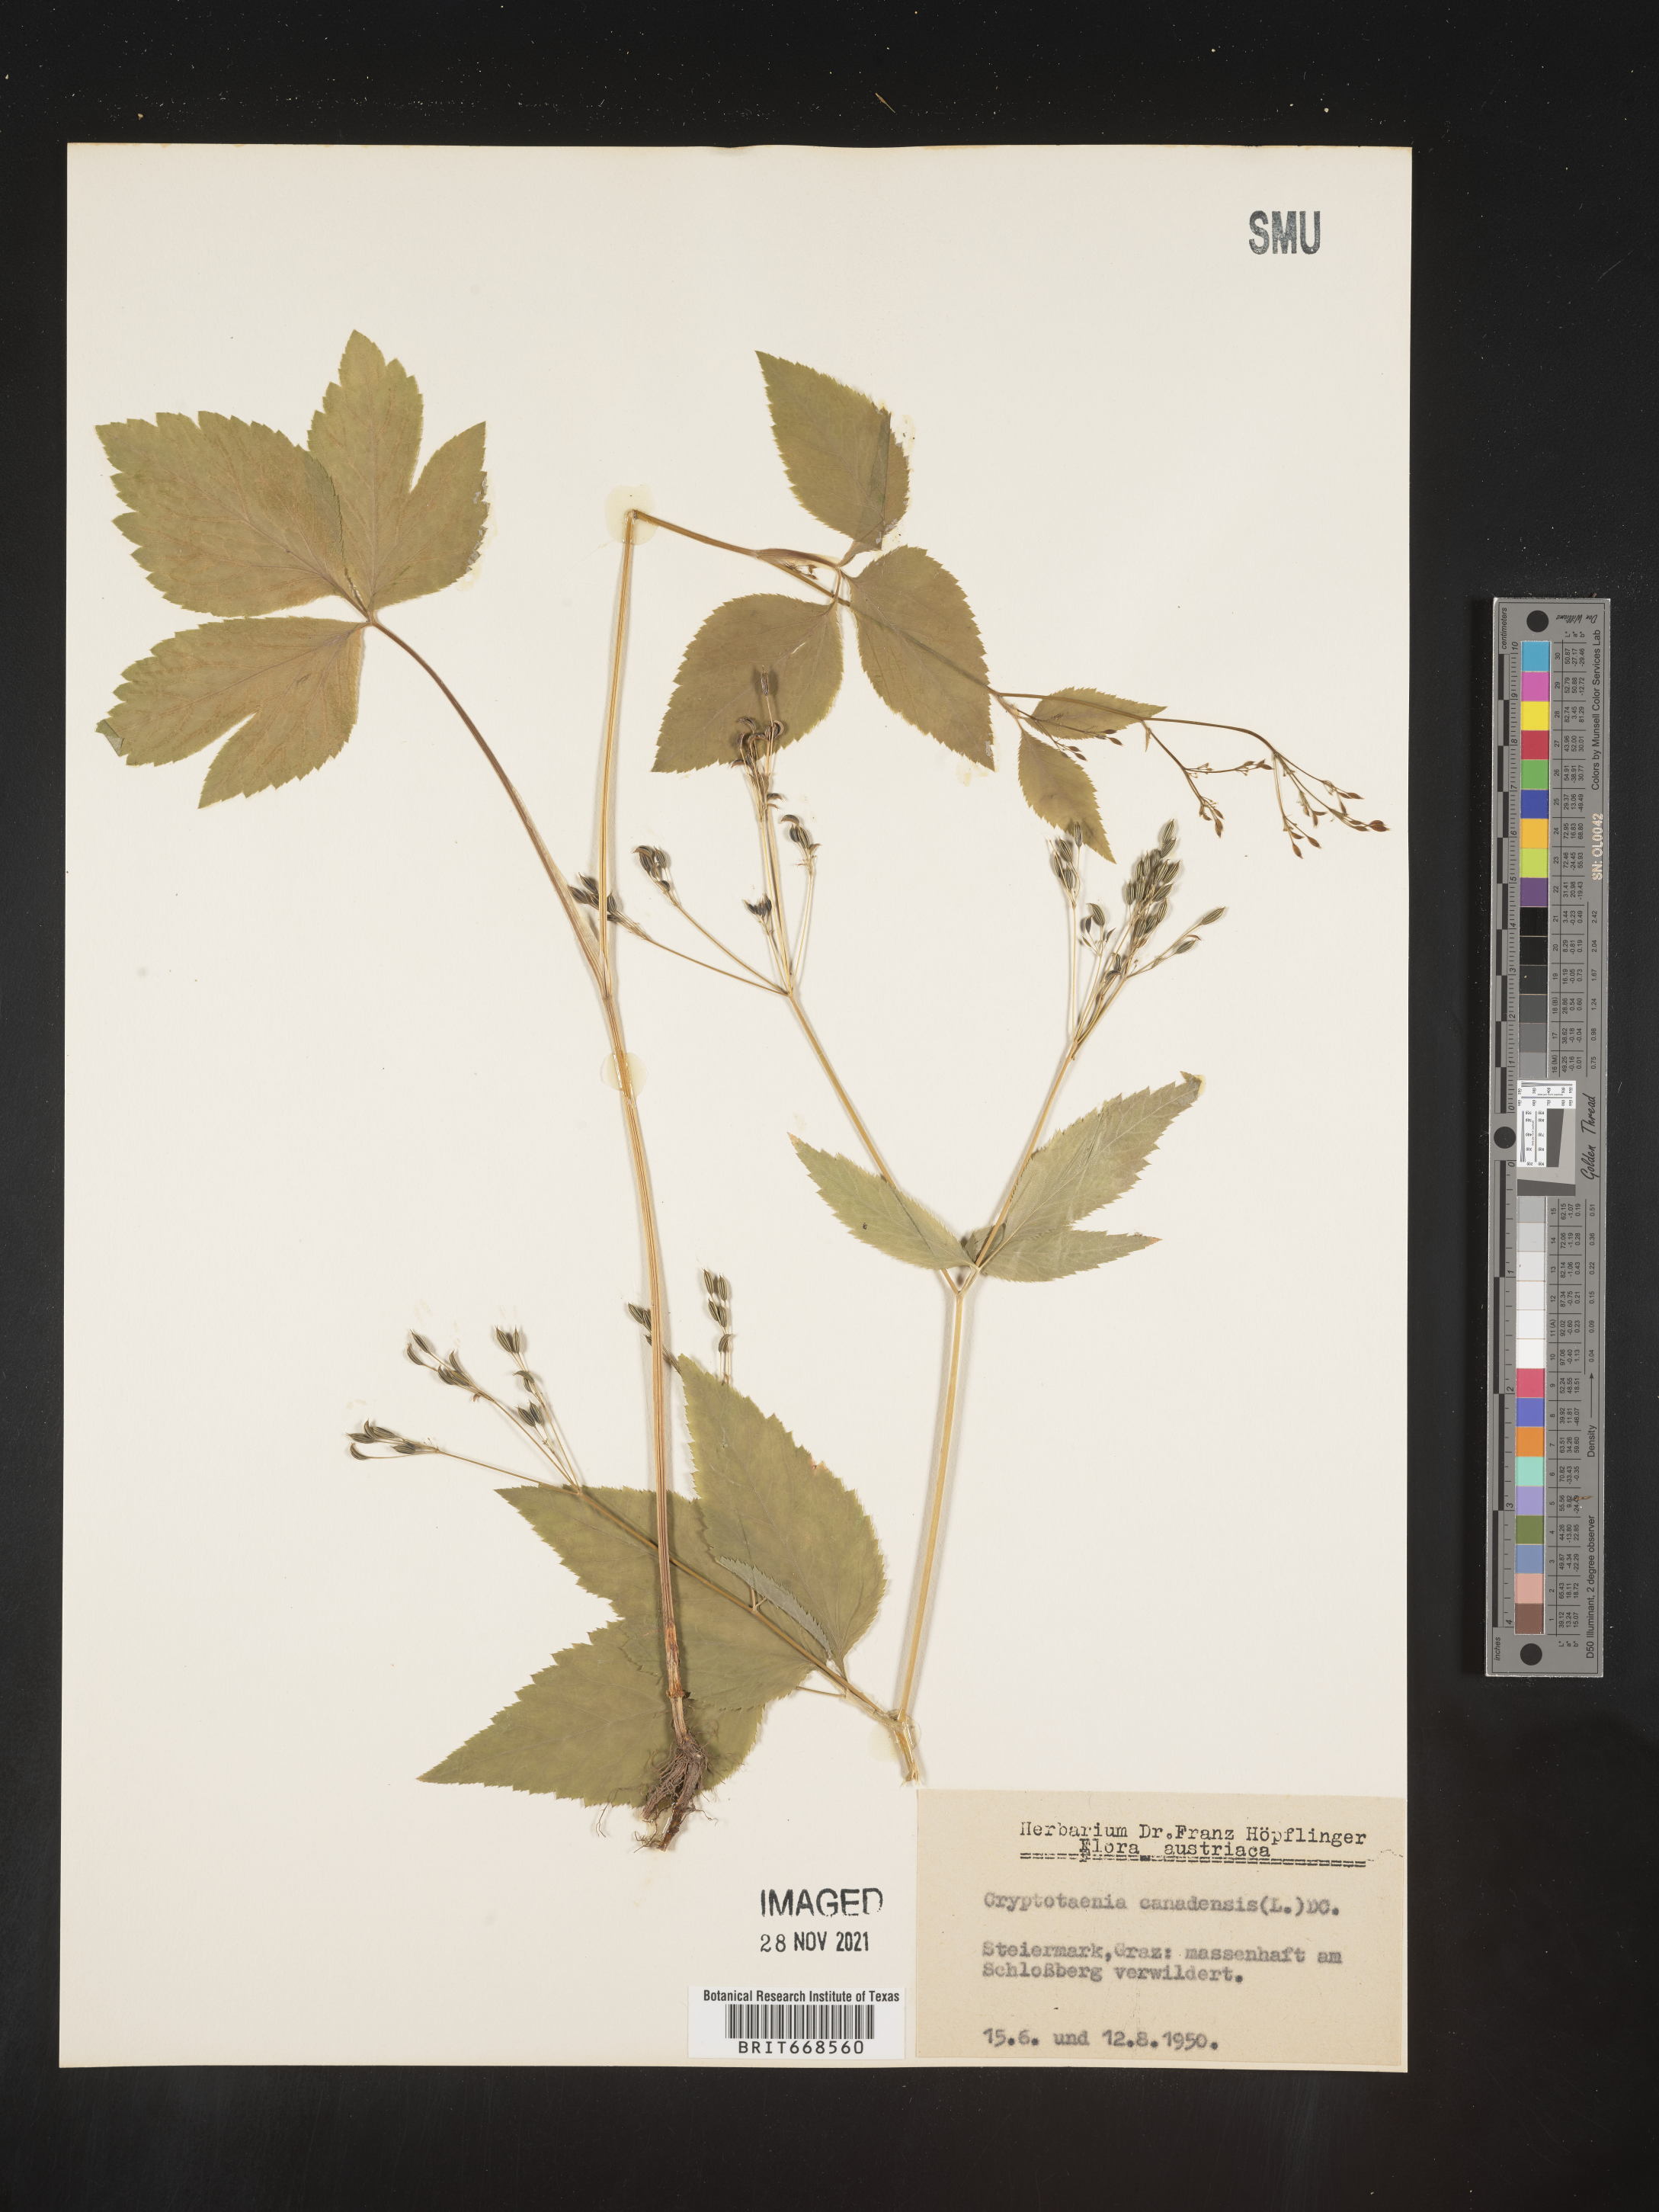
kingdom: Plantae
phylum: Tracheophyta
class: Magnoliopsida
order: Apiales
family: Apiaceae
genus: Cryptotaenia
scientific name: Cryptotaenia
